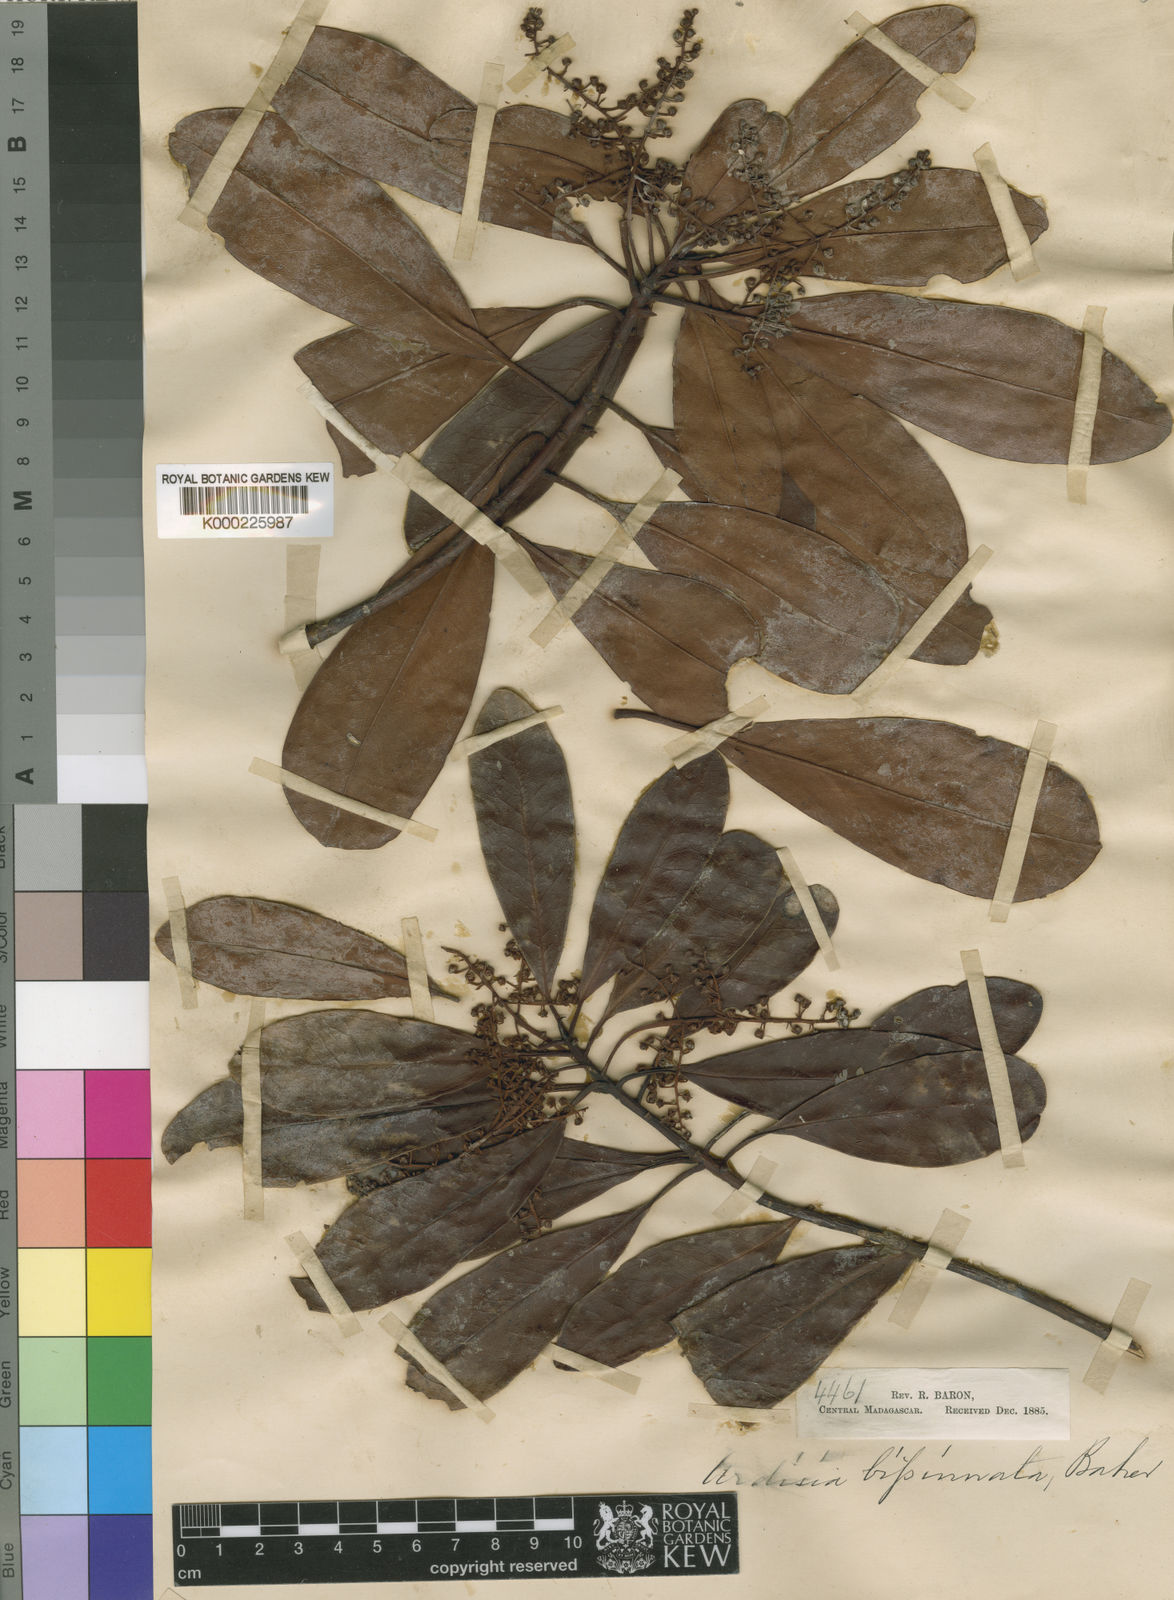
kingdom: Plantae
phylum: Tracheophyta
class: Magnoliopsida
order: Ericales
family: Primulaceae
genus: Monoporus
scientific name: Monoporus bipinnatus
